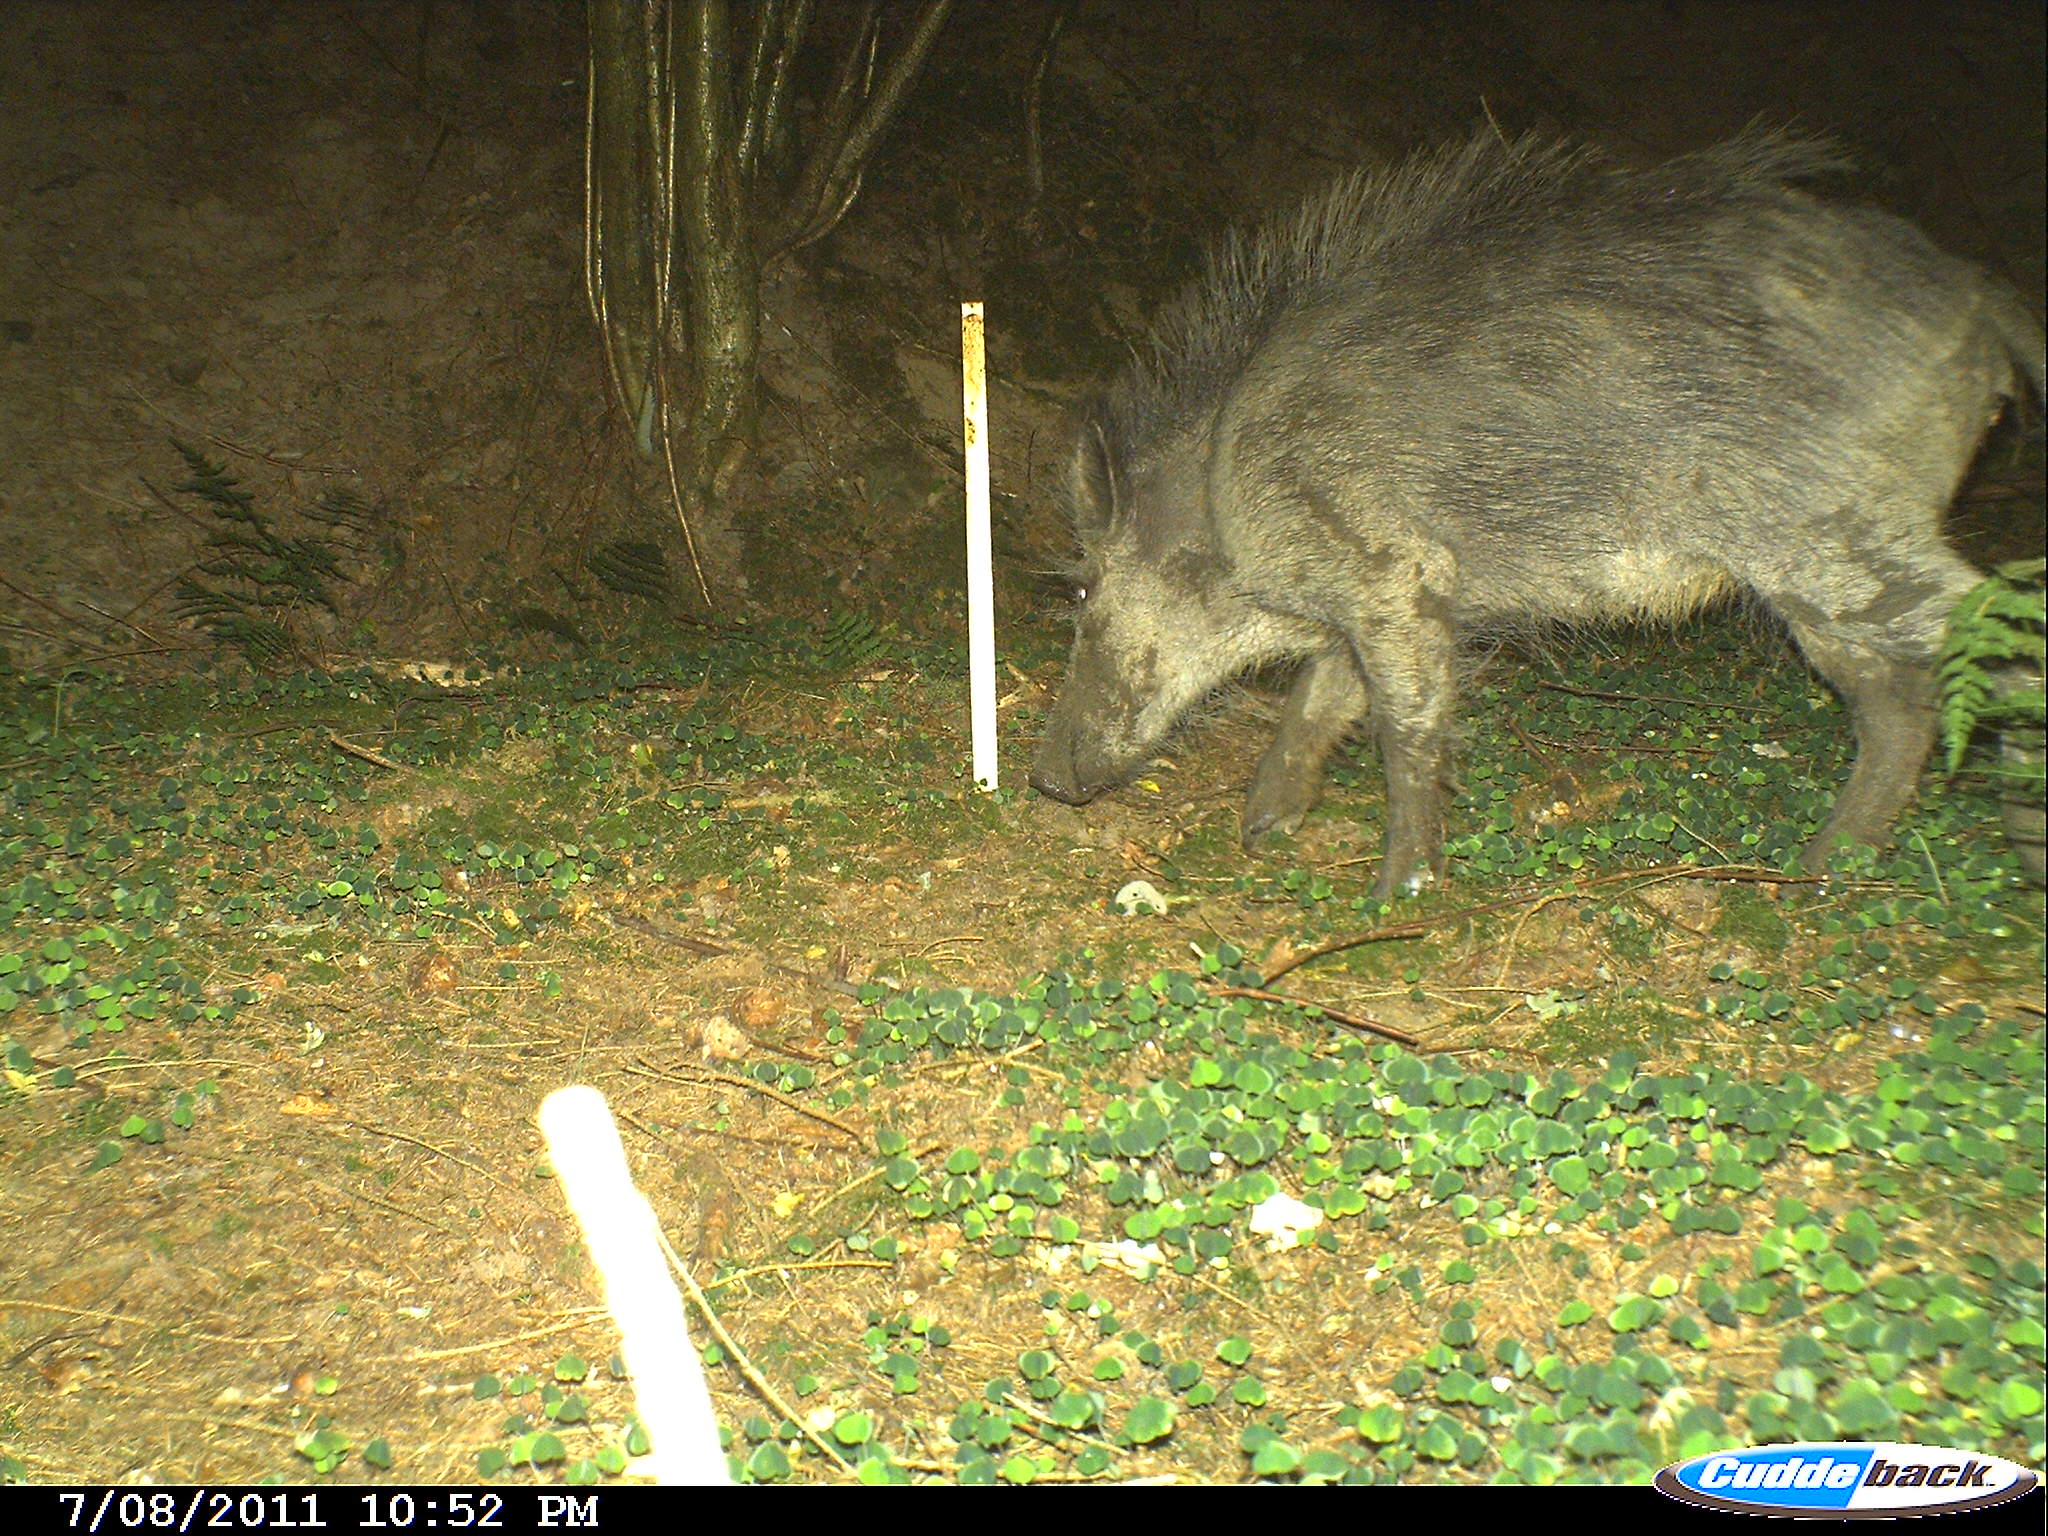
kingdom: Animalia
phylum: Chordata
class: Mammalia
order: Artiodactyla
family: Suidae
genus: Sus
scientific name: Sus scrofa
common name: Wild boar
